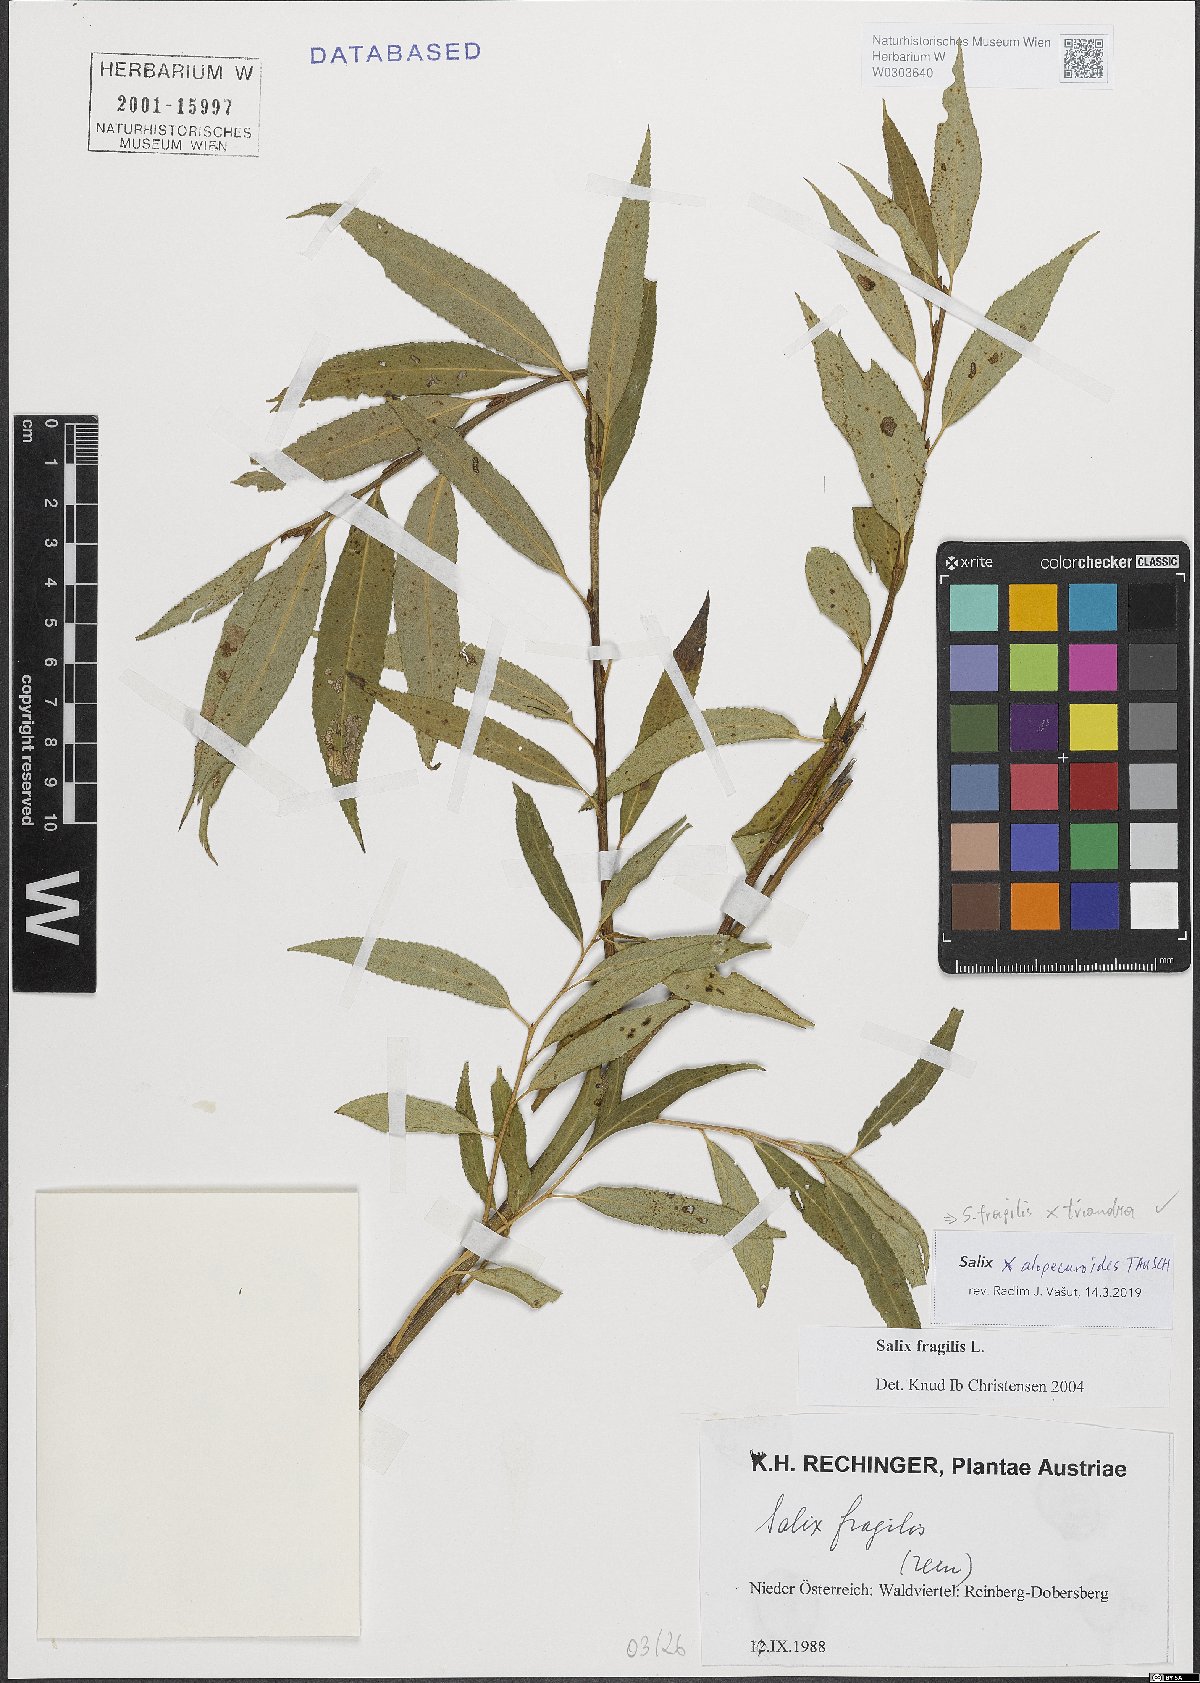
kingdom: Plantae
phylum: Tracheophyta
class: Magnoliopsida
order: Malpighiales
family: Salicaceae
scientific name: Salicaceae
